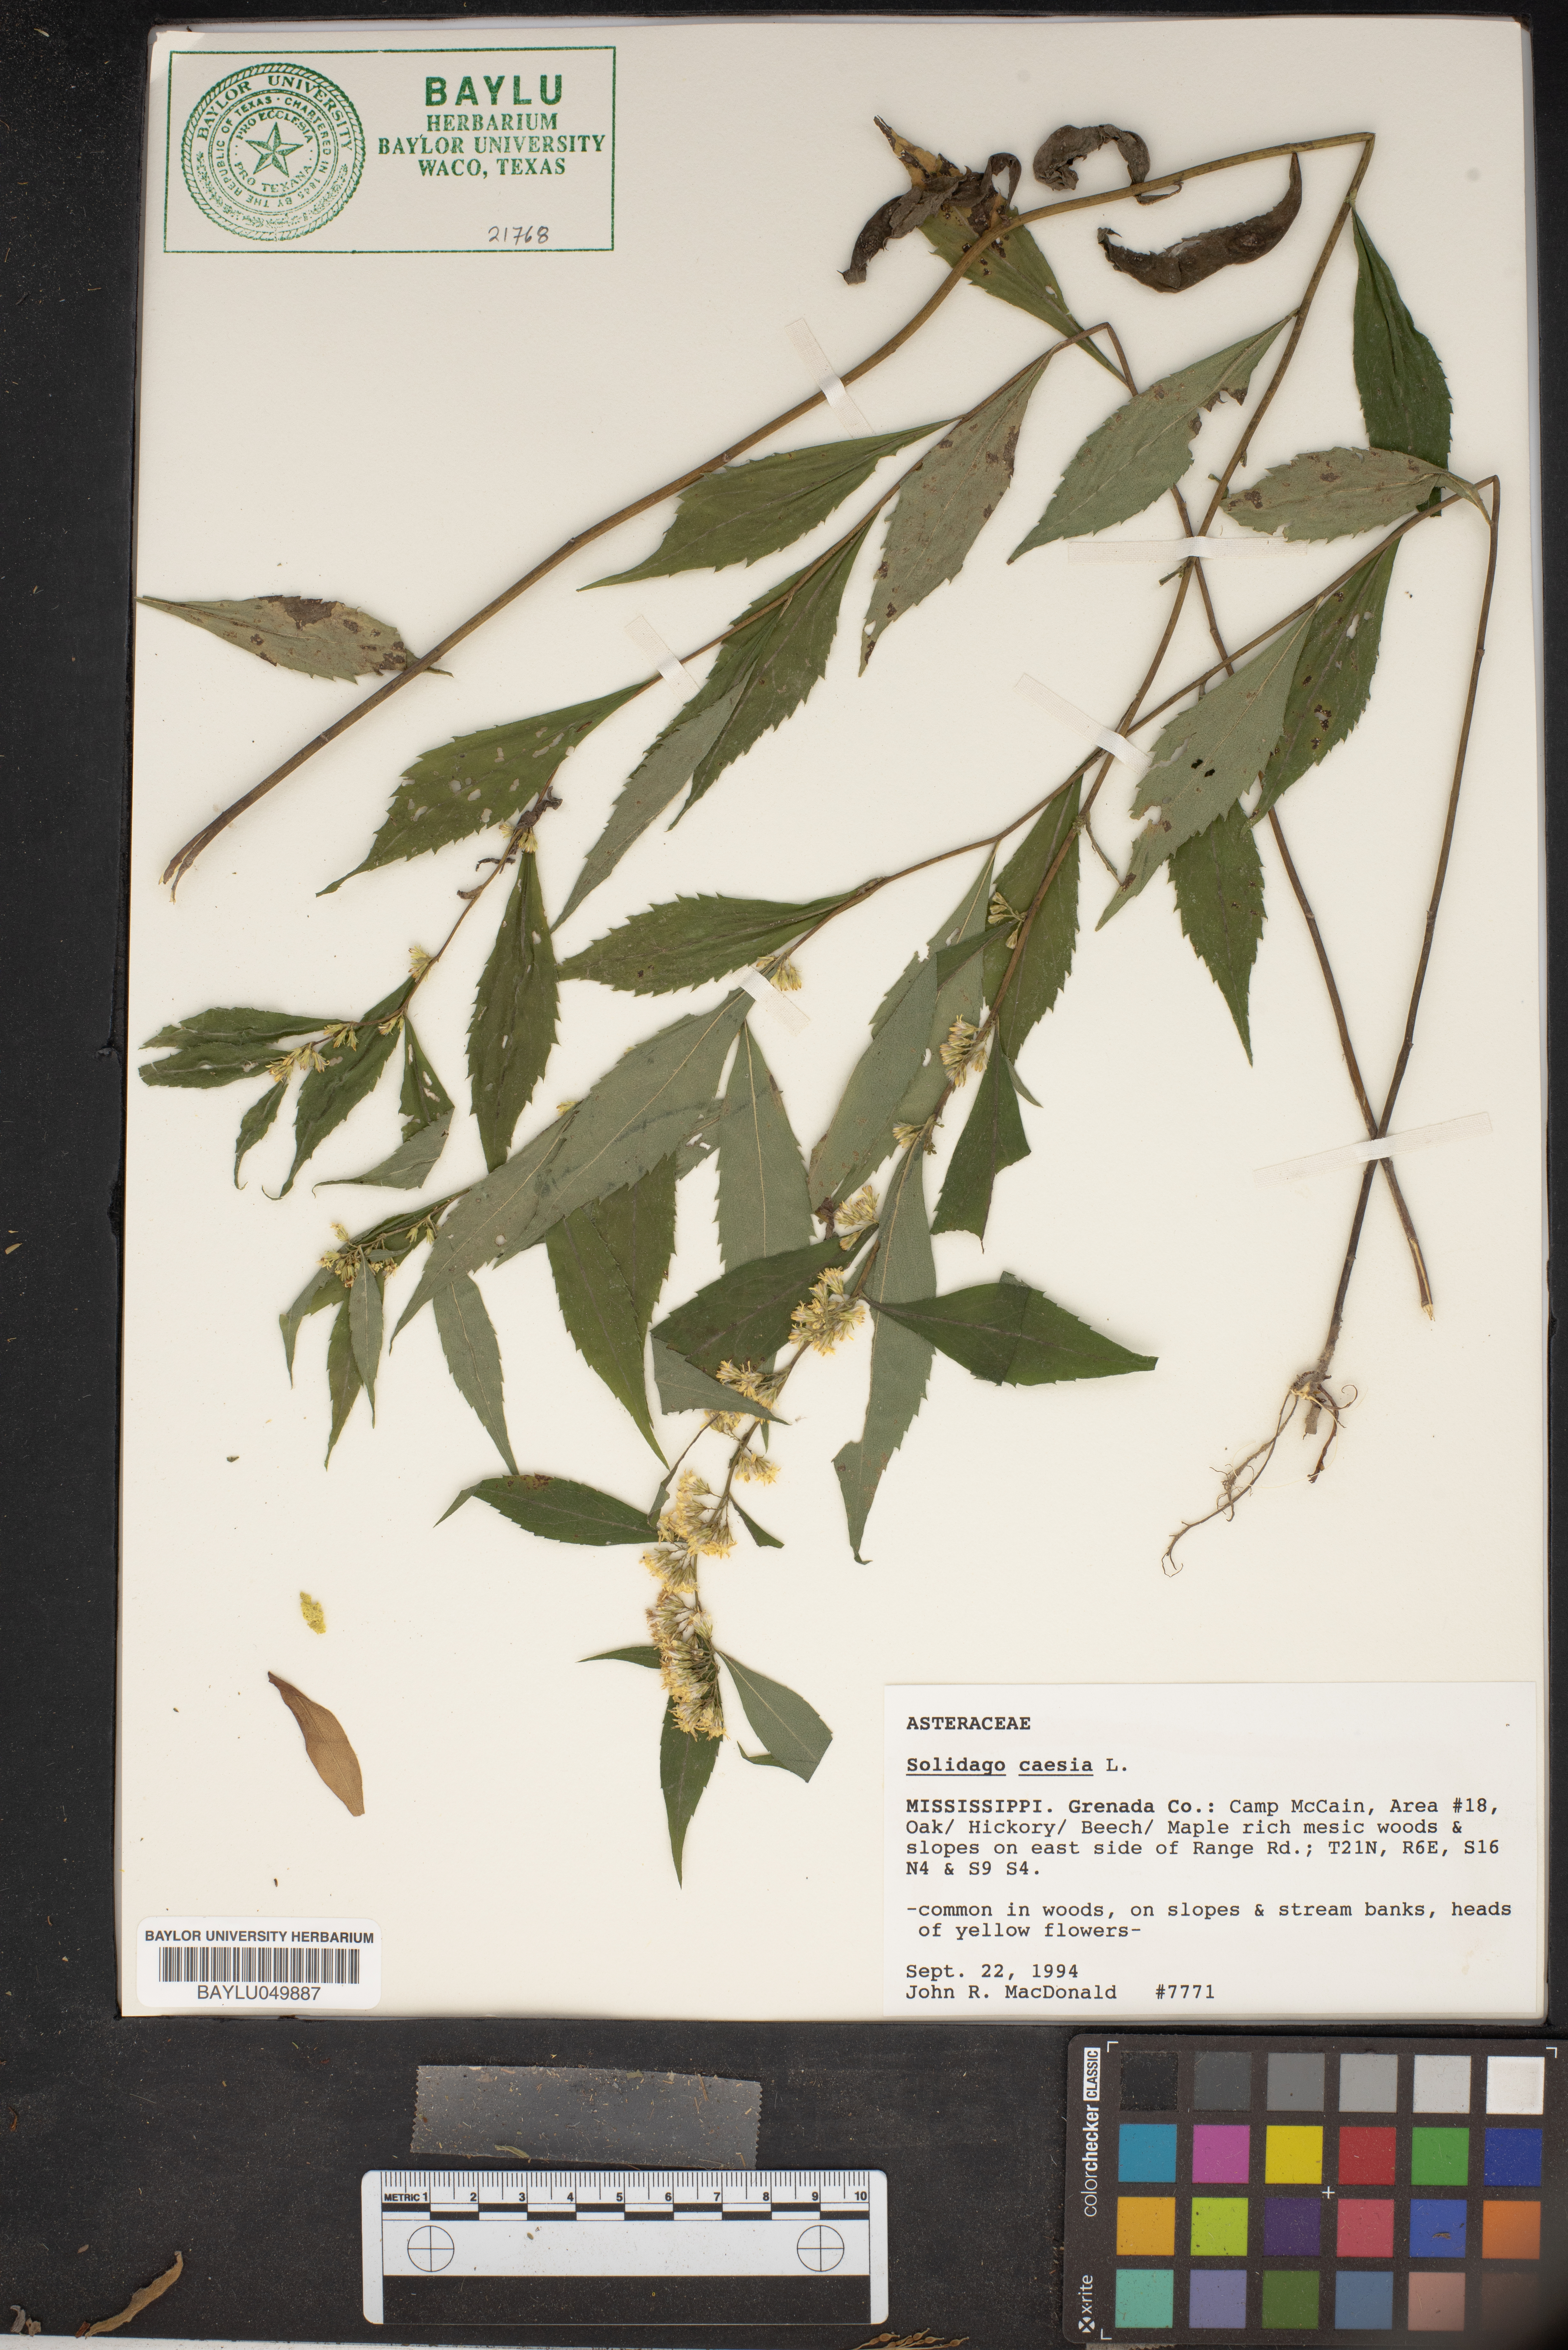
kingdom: Plantae
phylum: Tracheophyta
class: Magnoliopsida
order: Asterales
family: Asteraceae
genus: Solidago
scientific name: Solidago caesia
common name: Woodland goldenrod
